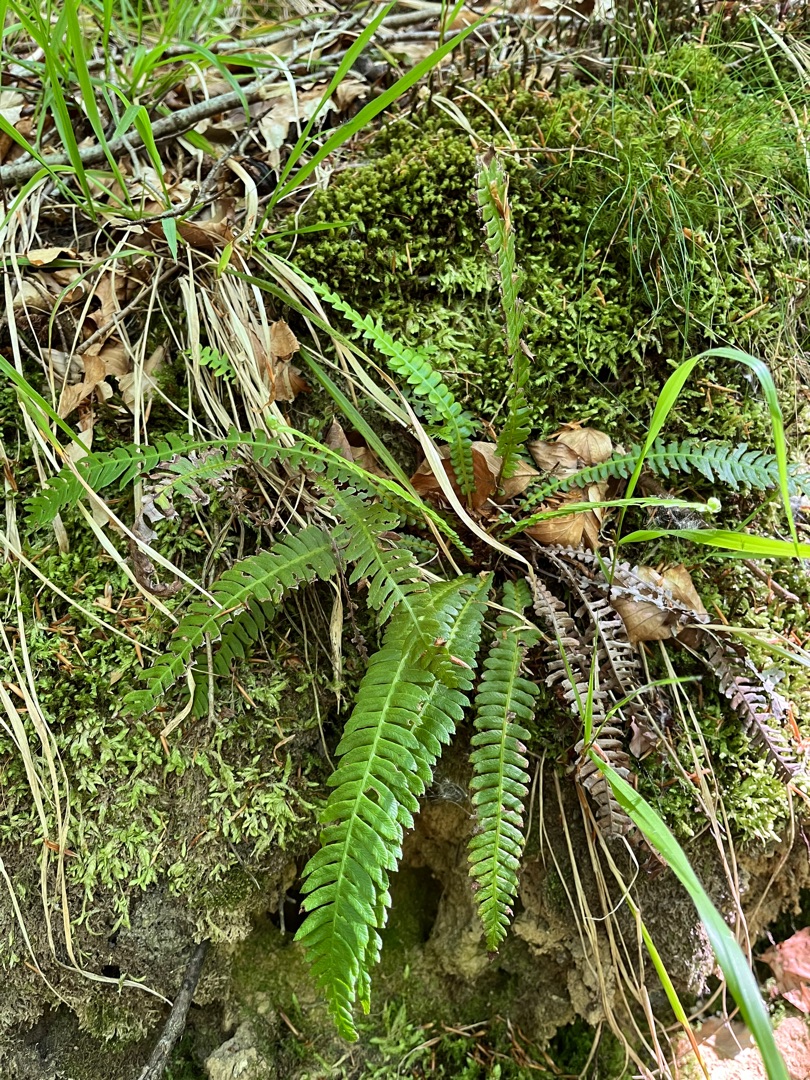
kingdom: Plantae
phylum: Tracheophyta
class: Polypodiopsida
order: Polypodiales
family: Blechnaceae
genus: Struthiopteris
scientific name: Struthiopteris spicant
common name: Kambregne
